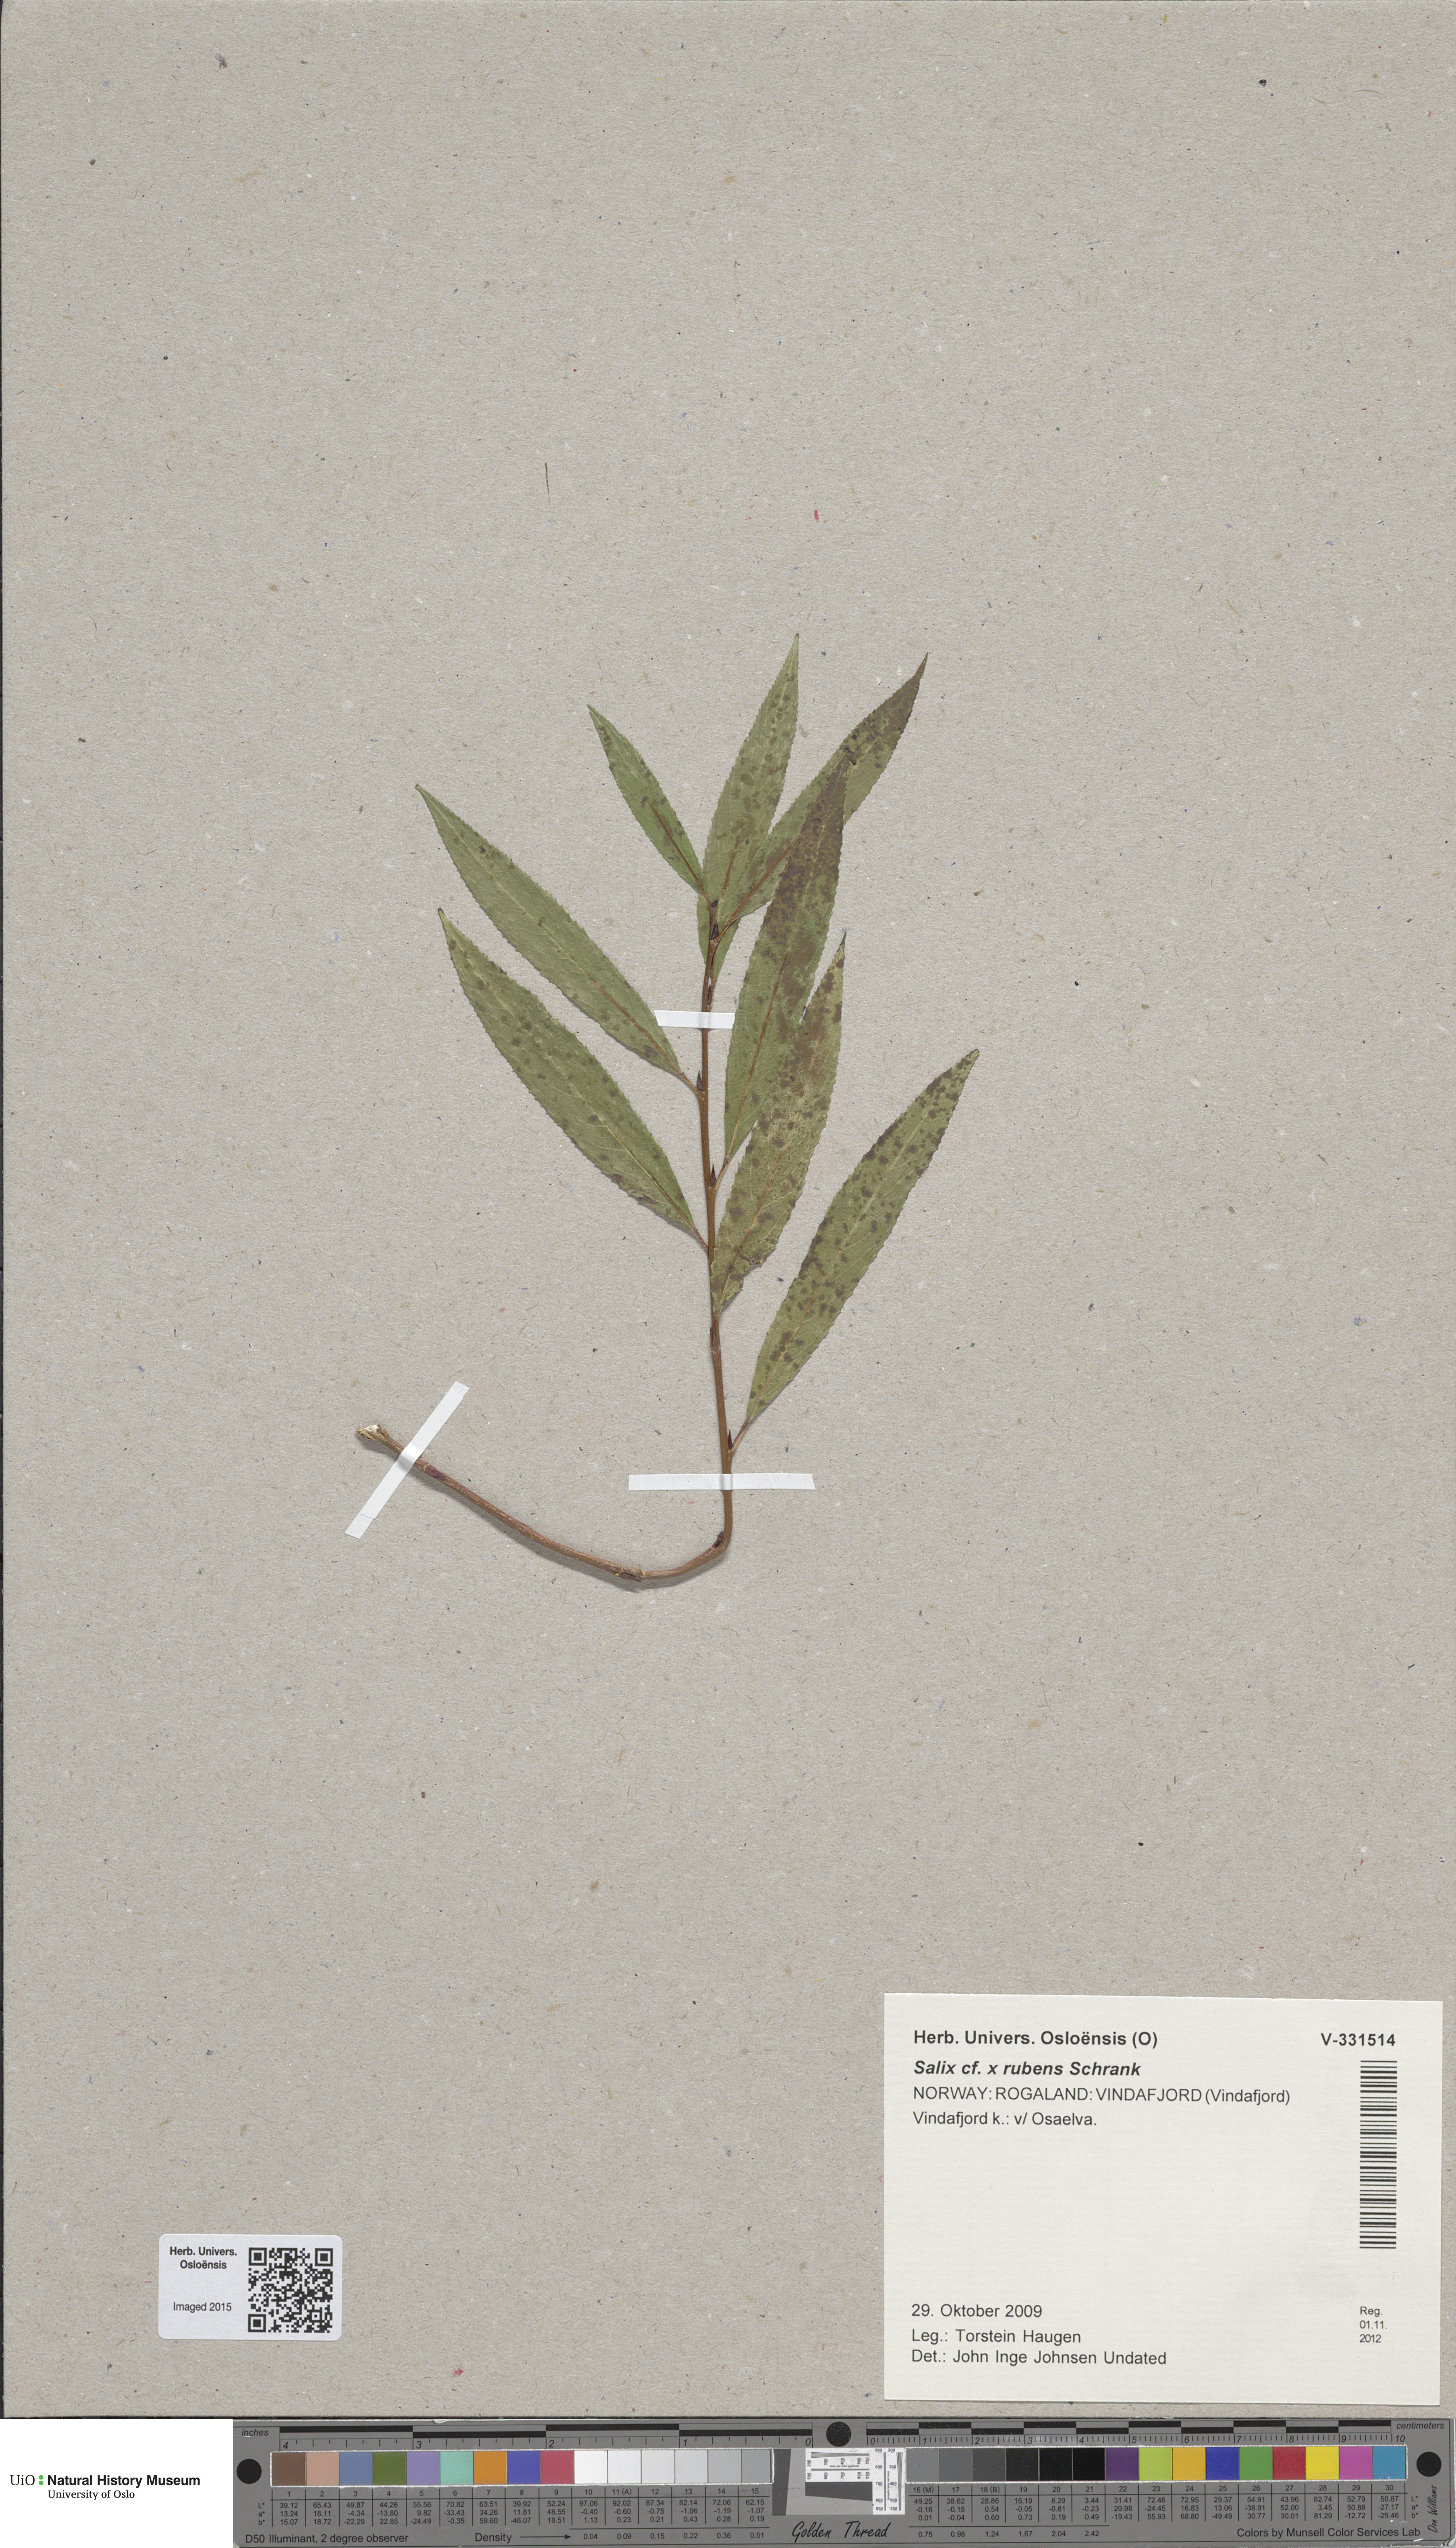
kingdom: Plantae
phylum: Tracheophyta
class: Magnoliopsida
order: Malpighiales
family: Salicaceae
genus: Salix
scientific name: Salix fragilis
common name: Crack willow
